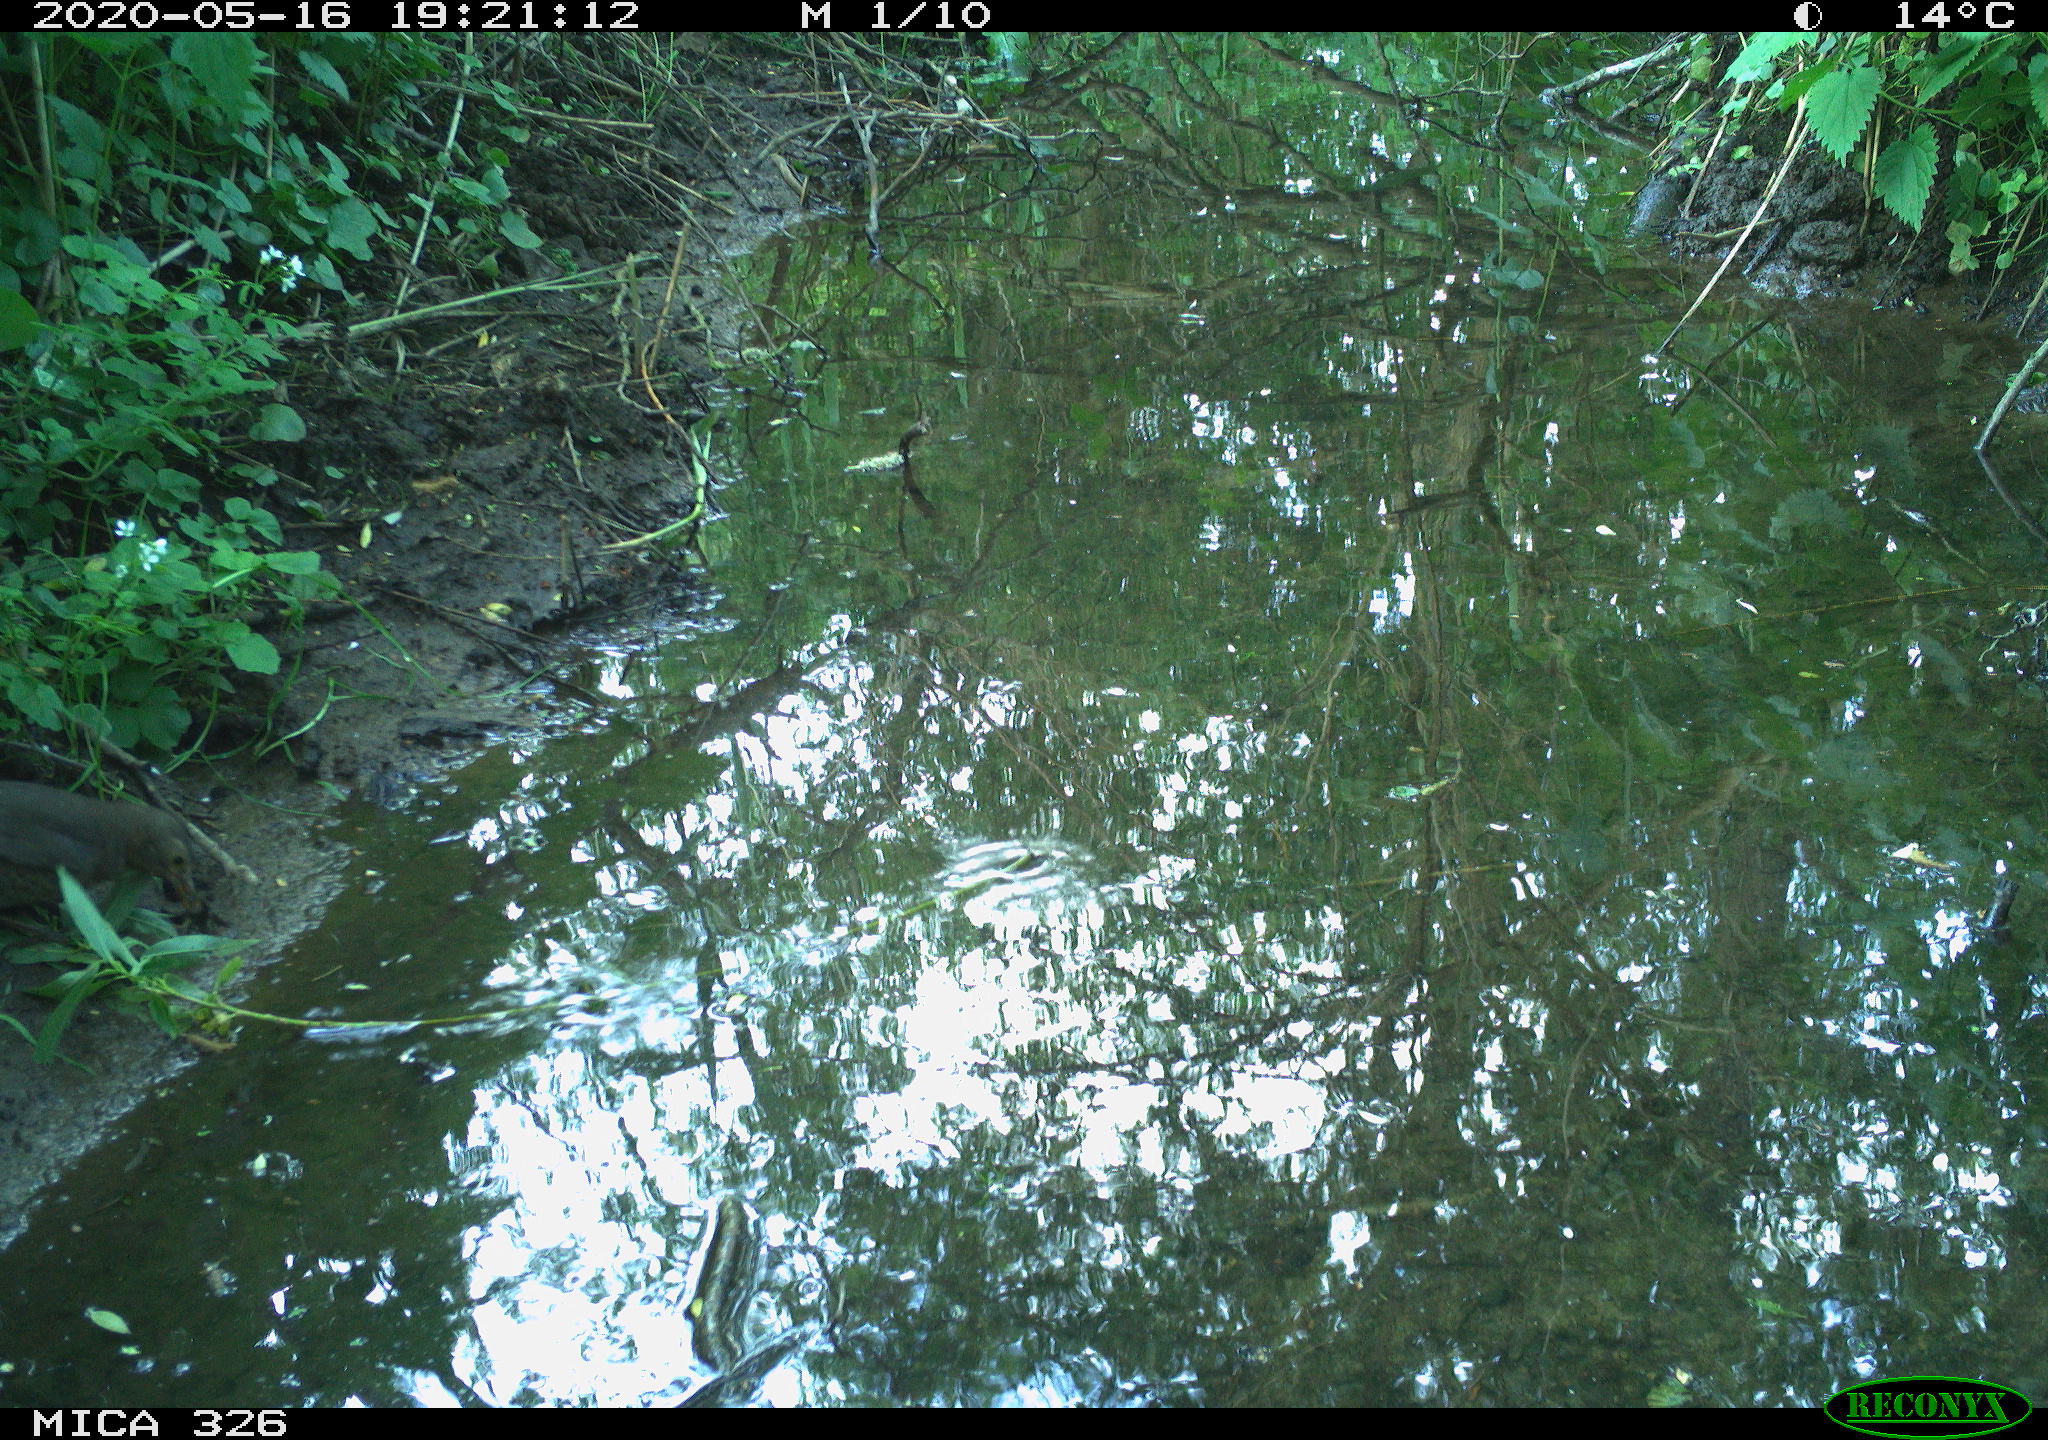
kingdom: Animalia
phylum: Chordata
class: Aves
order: Passeriformes
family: Turdidae
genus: Turdus
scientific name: Turdus merula
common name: Common blackbird
